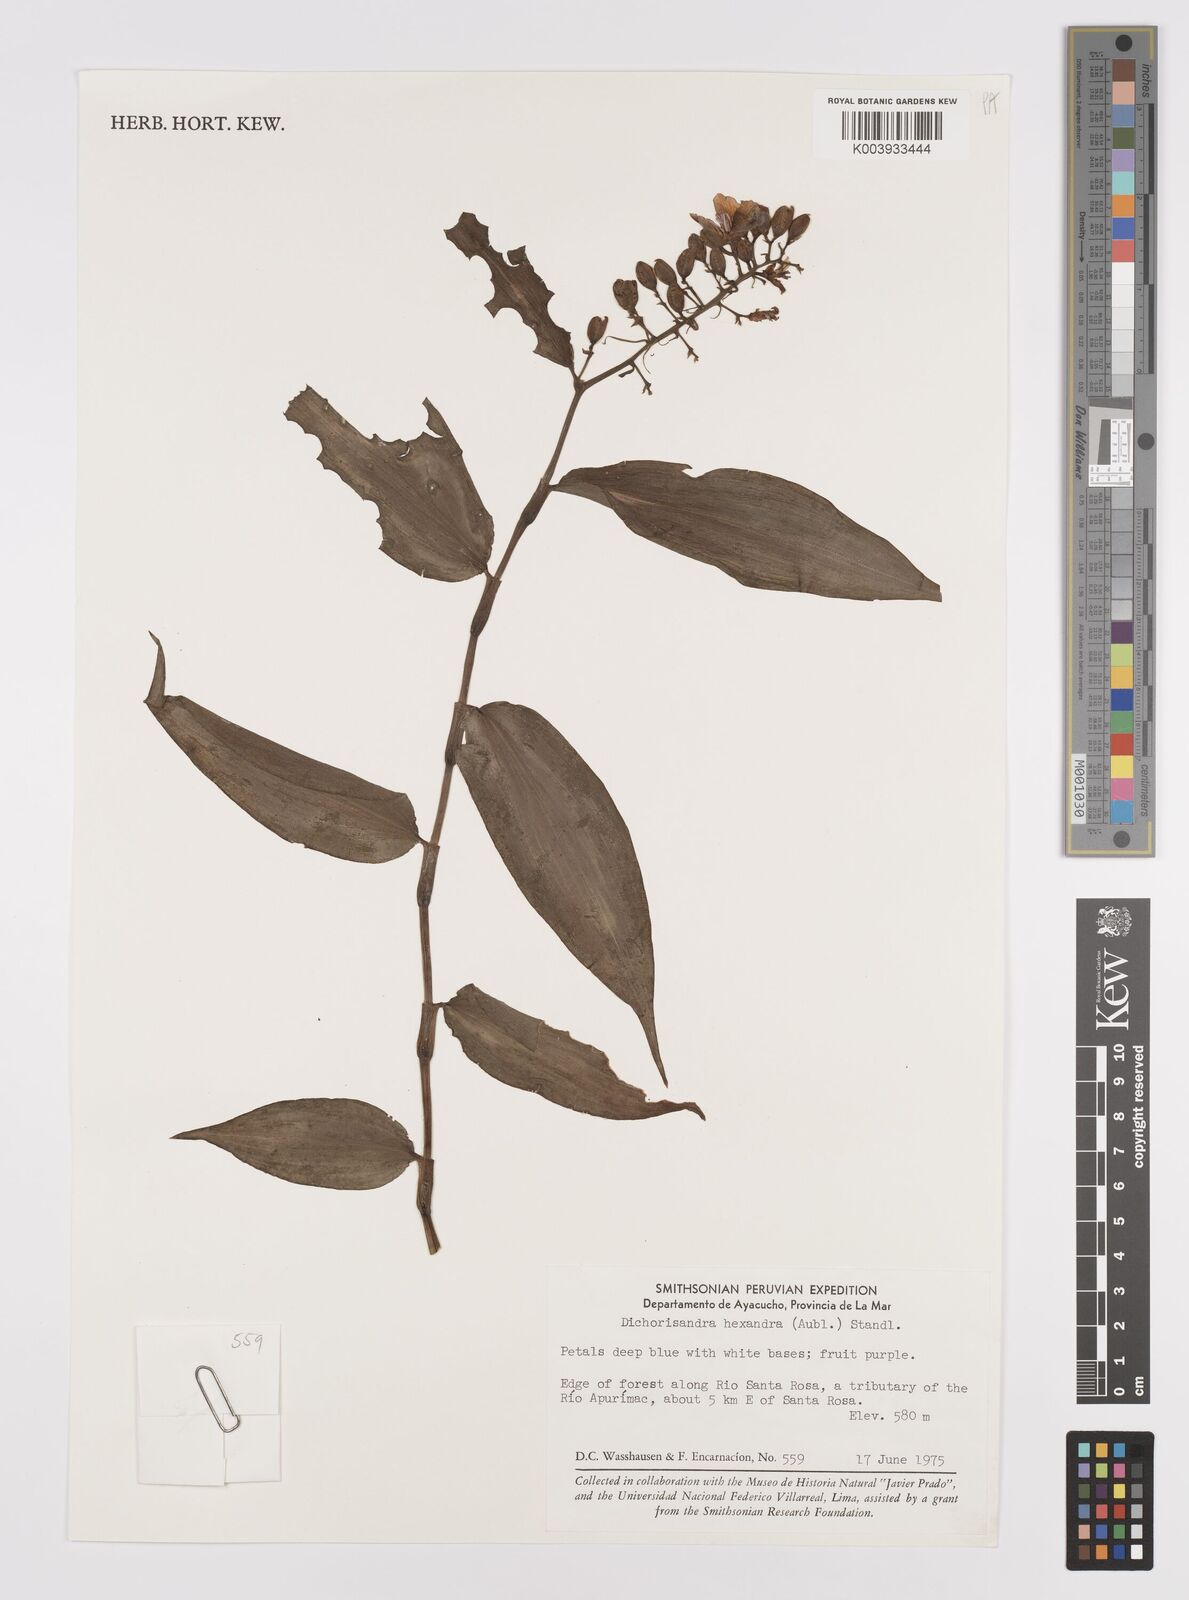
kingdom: Plantae
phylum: Tracheophyta
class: Liliopsida
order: Commelinales
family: Commelinaceae
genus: Dichorisandra
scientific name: Dichorisandra hexandra
